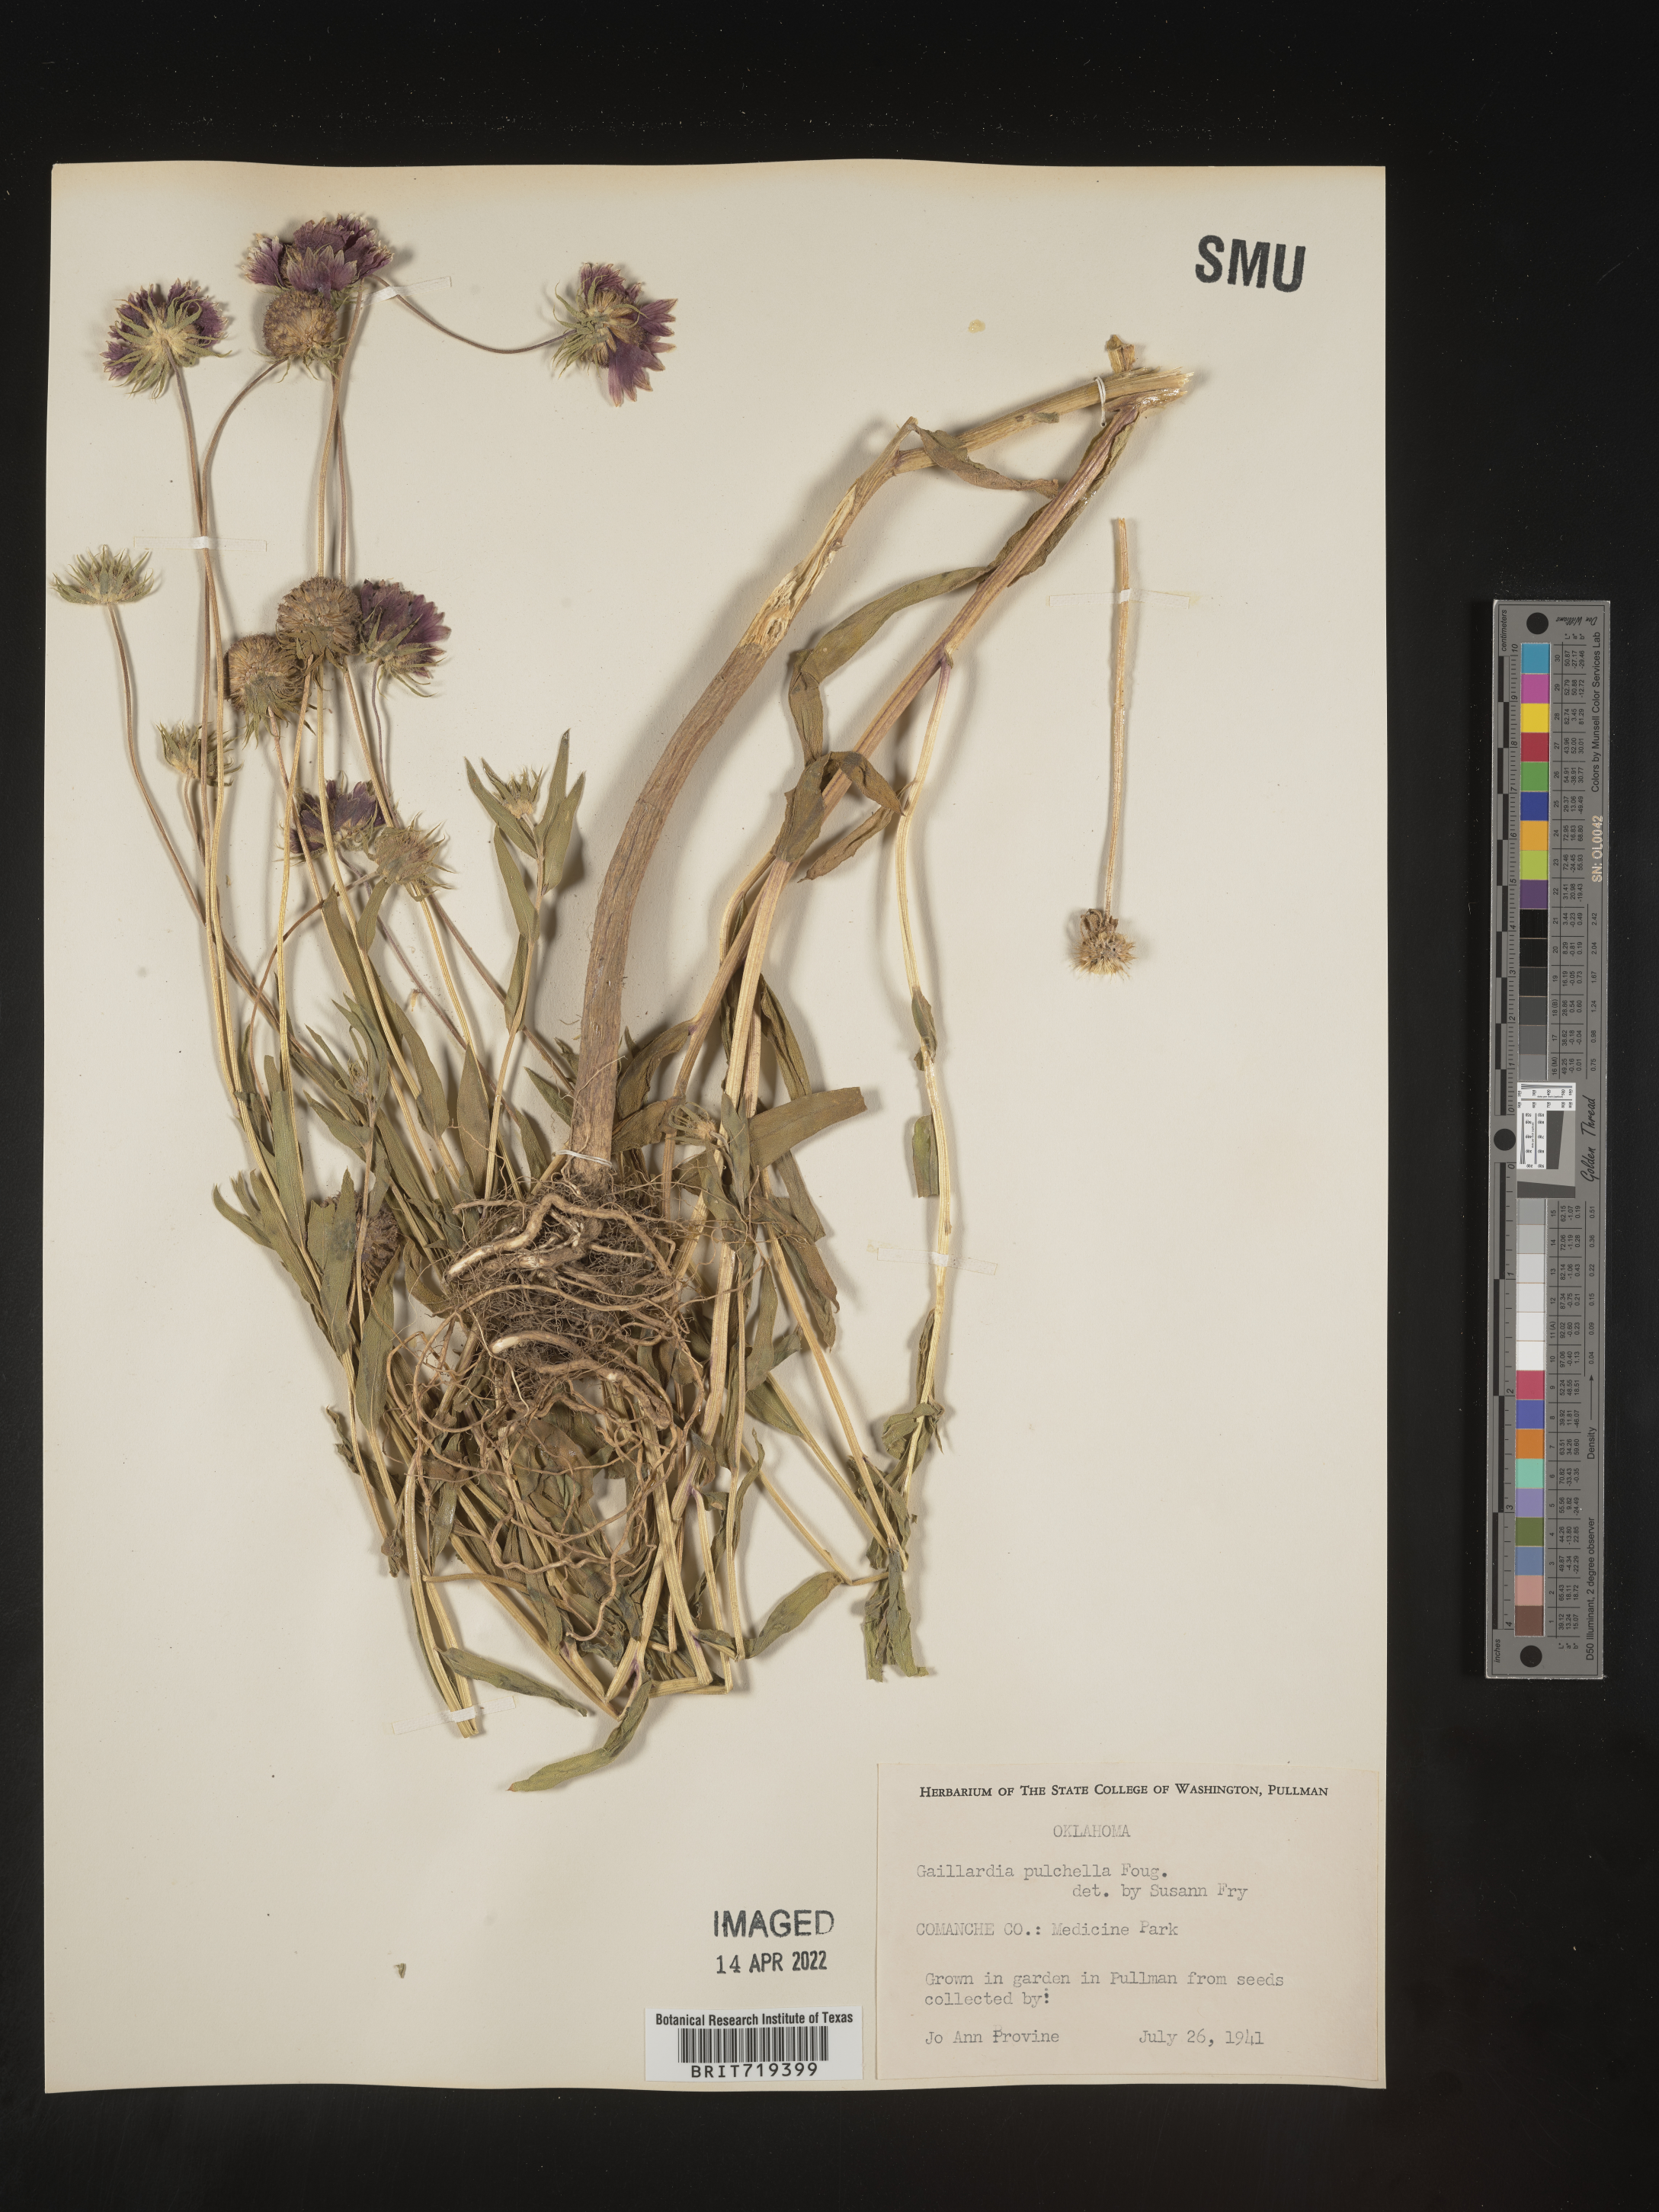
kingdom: Plantae
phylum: Tracheophyta
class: Magnoliopsida
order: Asterales
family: Asteraceae
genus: Gaillardia
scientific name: Gaillardia
